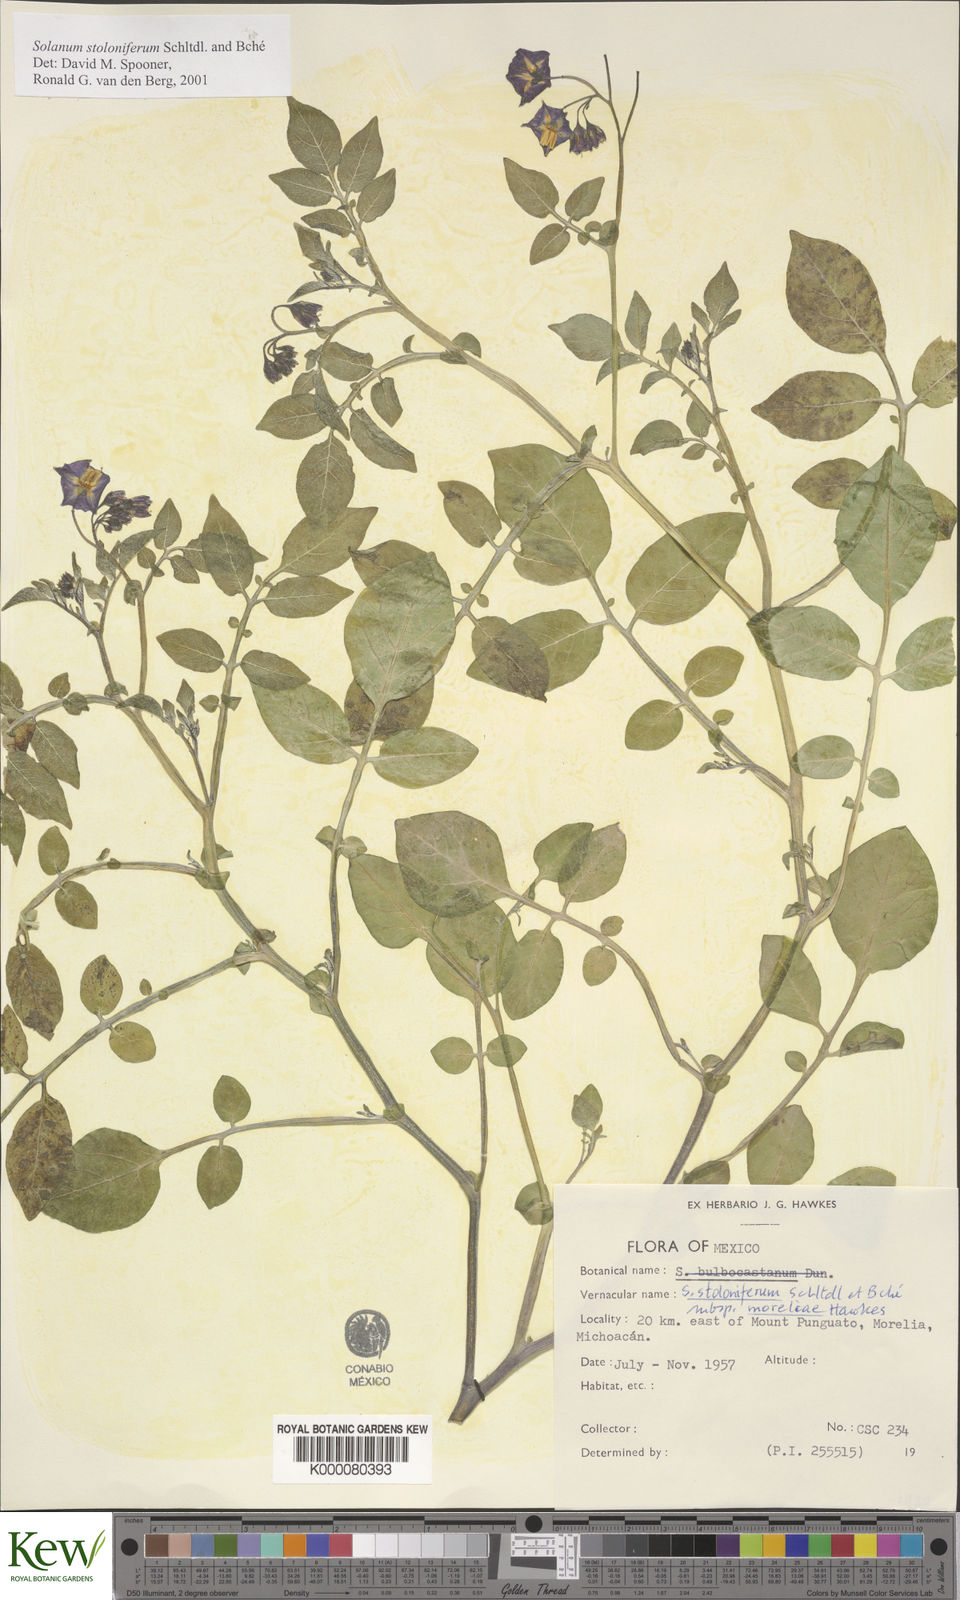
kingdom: Plantae
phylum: Tracheophyta
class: Magnoliopsida
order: Solanales
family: Solanaceae
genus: Solanum
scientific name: Solanum stoloniferum
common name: Fendler's nighshade
